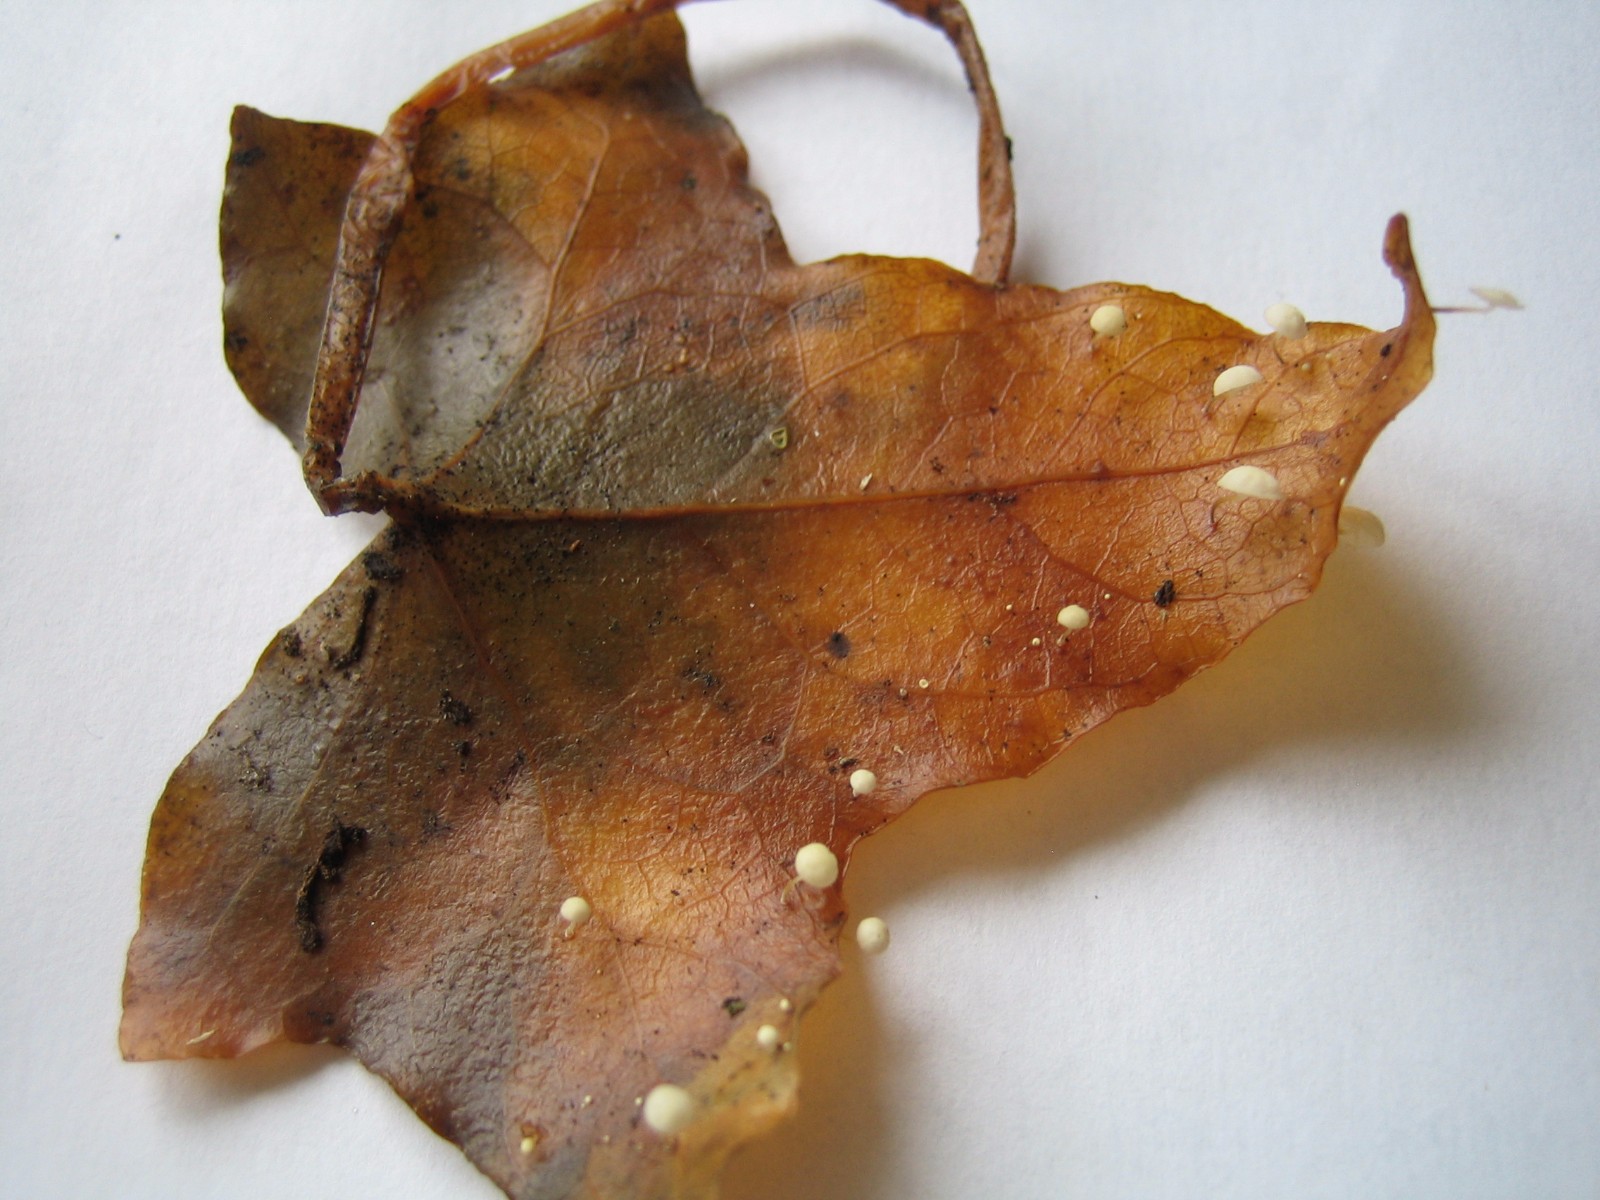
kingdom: Fungi
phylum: Basidiomycota
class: Agaricomycetes
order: Agaricales
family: Marasmiaceae
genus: Marasmius
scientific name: Marasmius epiphylloides
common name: vedbend-bruskhat
